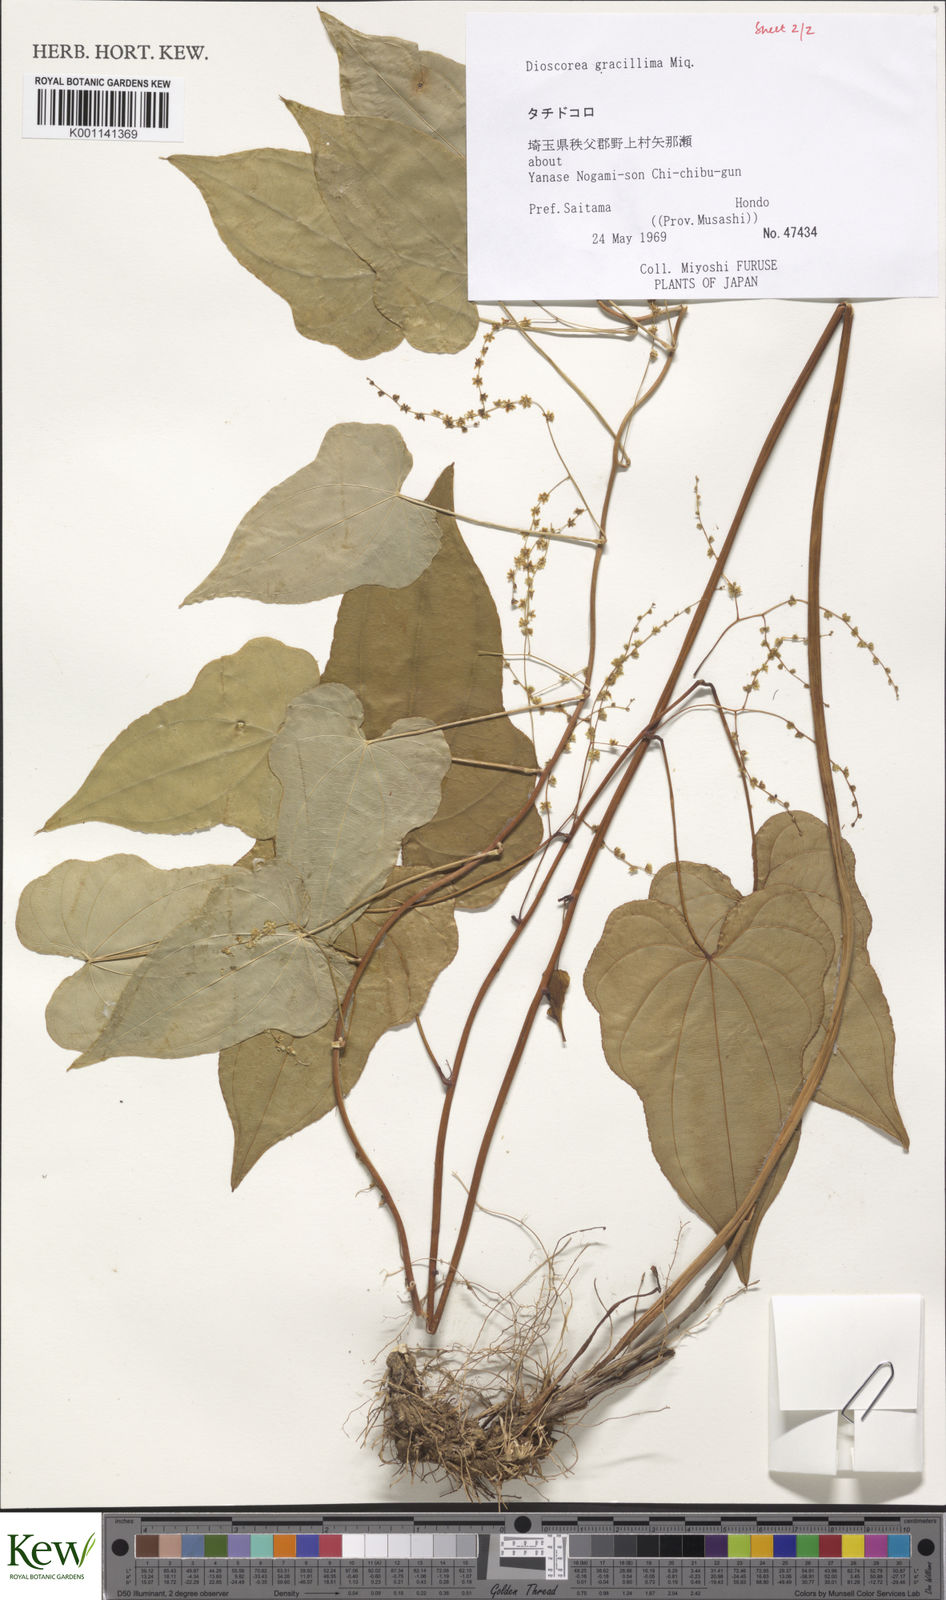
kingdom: Plantae
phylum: Tracheophyta
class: Liliopsida
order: Dioscoreales
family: Dioscoreaceae
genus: Dioscorea
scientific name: Dioscorea gracillima
